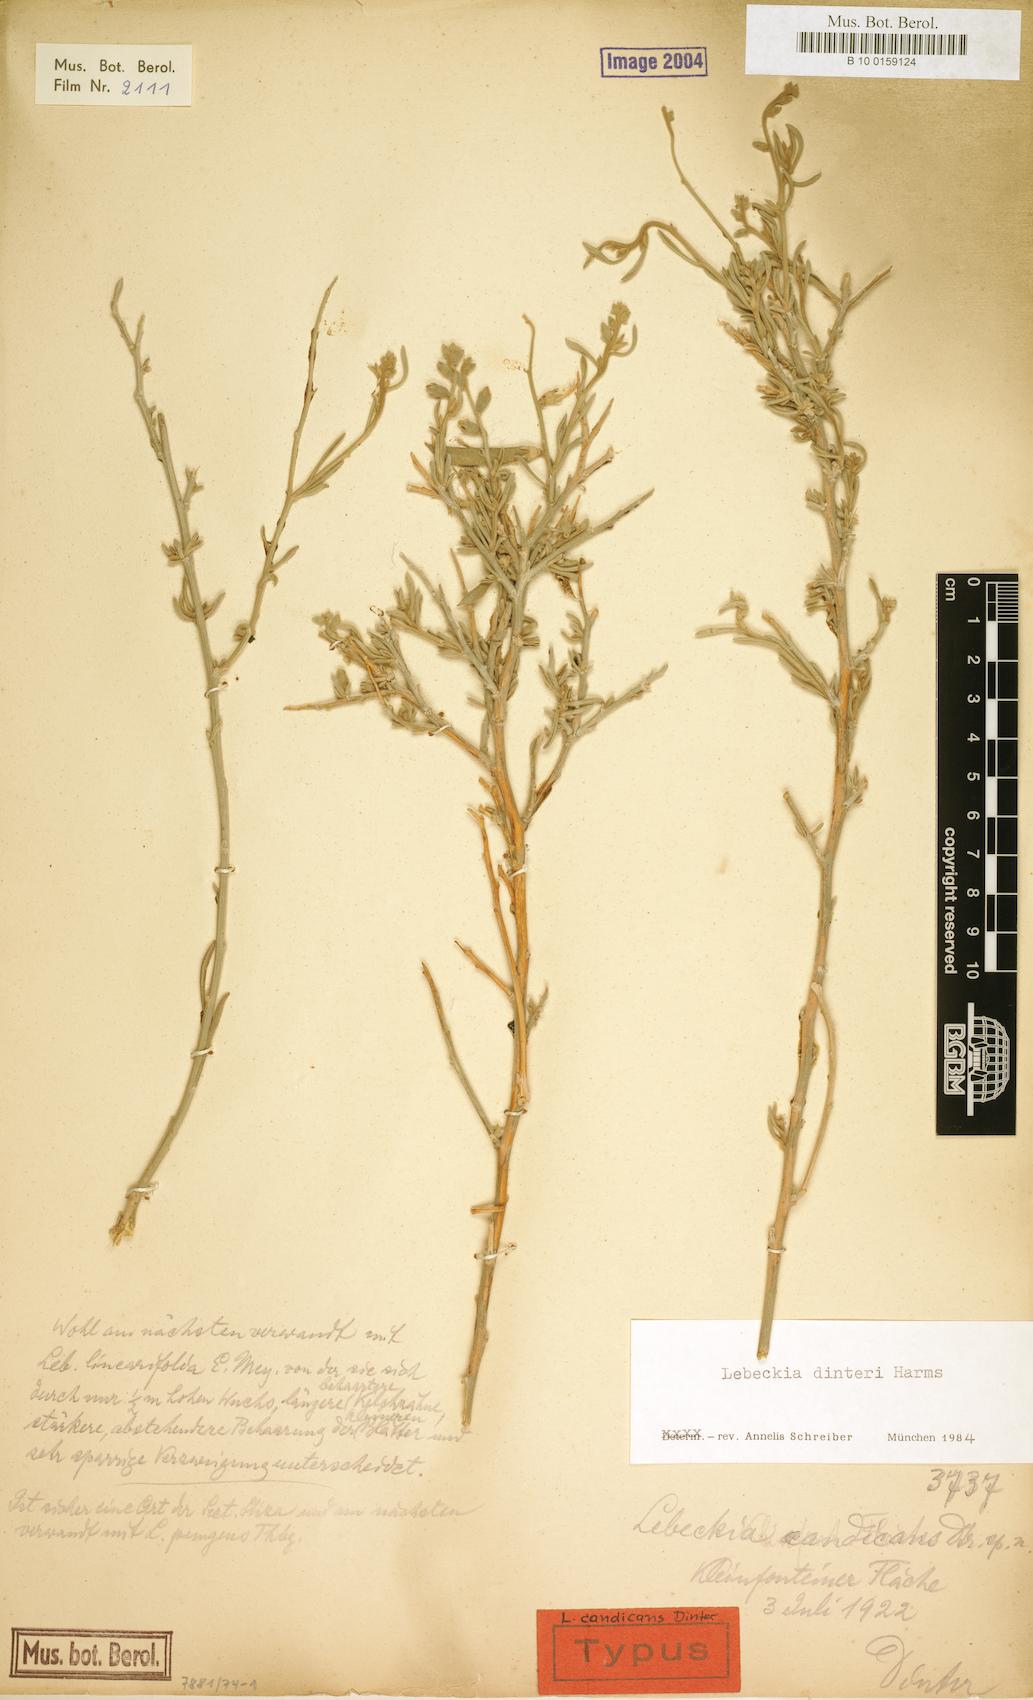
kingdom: Plantae
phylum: Tracheophyta
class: Magnoliopsida
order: Fabales
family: Fabaceae
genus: Calobota
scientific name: Calobota linearifolia
